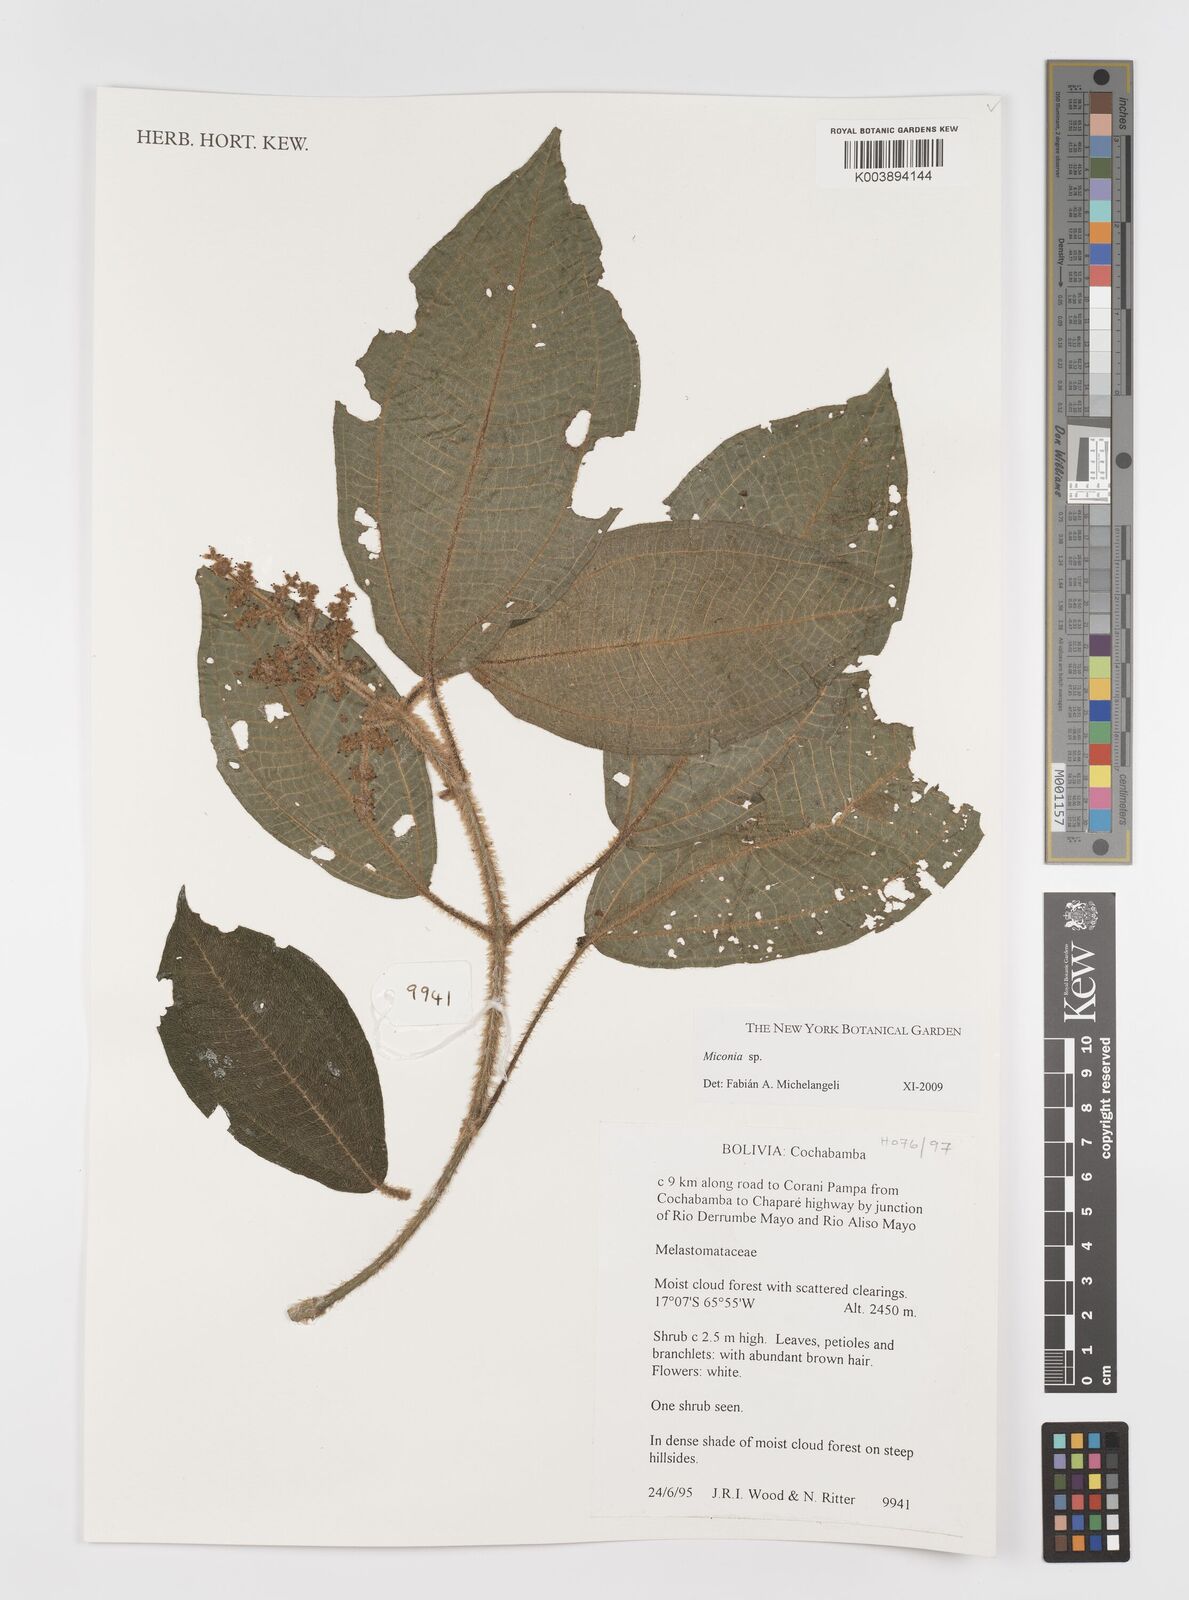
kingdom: Plantae
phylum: Tracheophyta
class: Magnoliopsida
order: Myrtales
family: Melastomataceae
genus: Miconia
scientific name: Miconia
